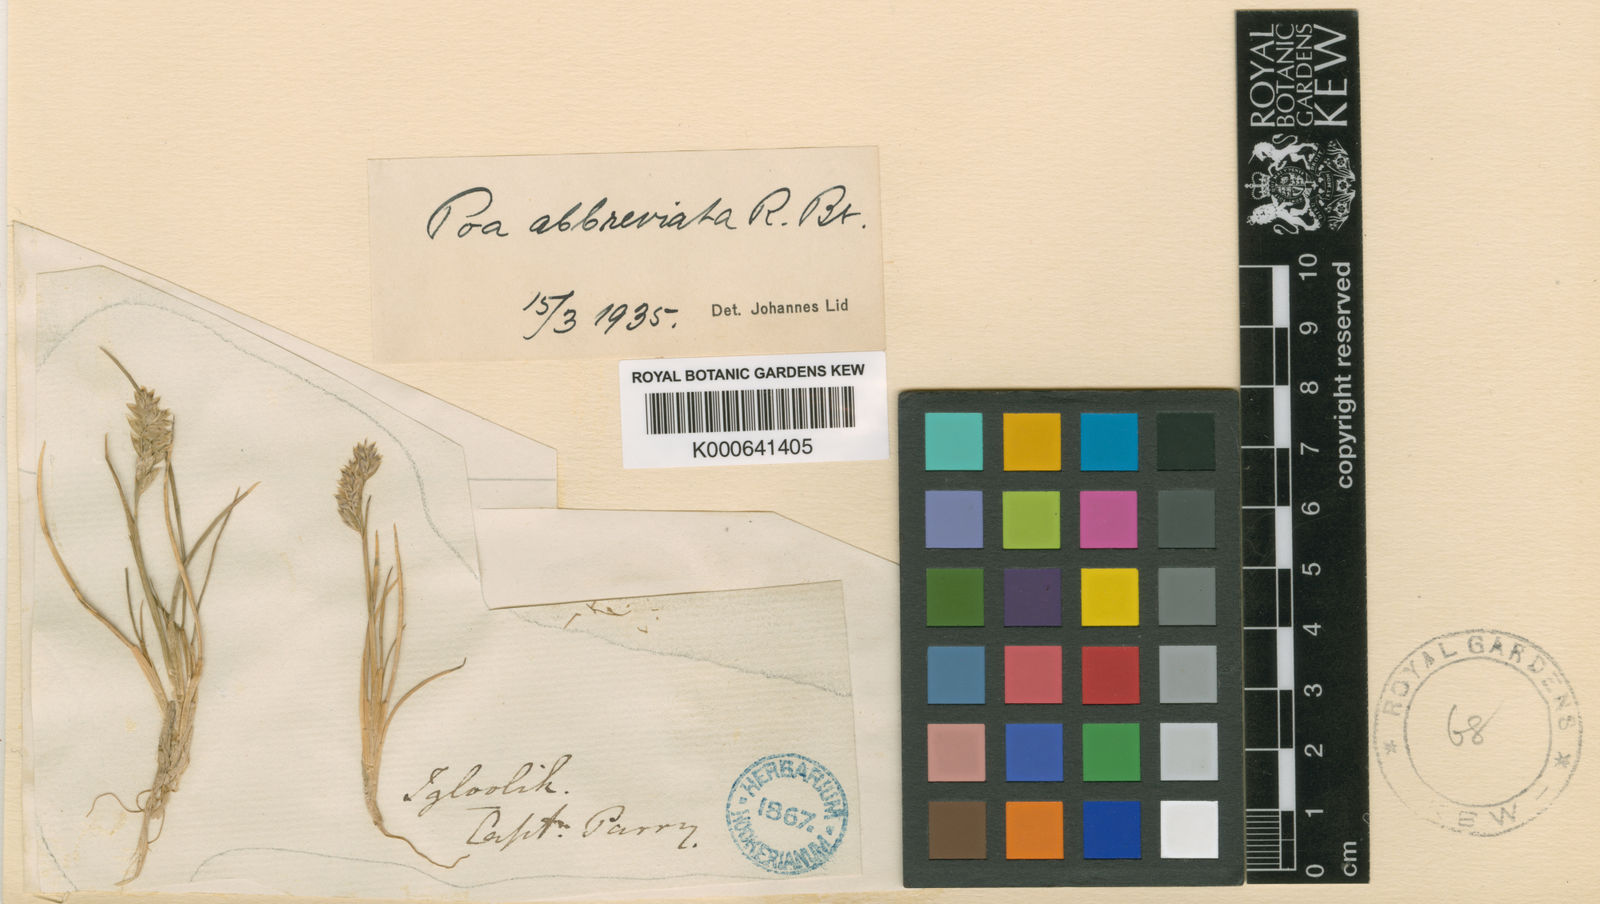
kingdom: Plantae
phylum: Tracheophyta
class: Liliopsida
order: Poales
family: Poaceae
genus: Poa
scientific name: Poa abbreviata
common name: Abbreviated bluegrass
